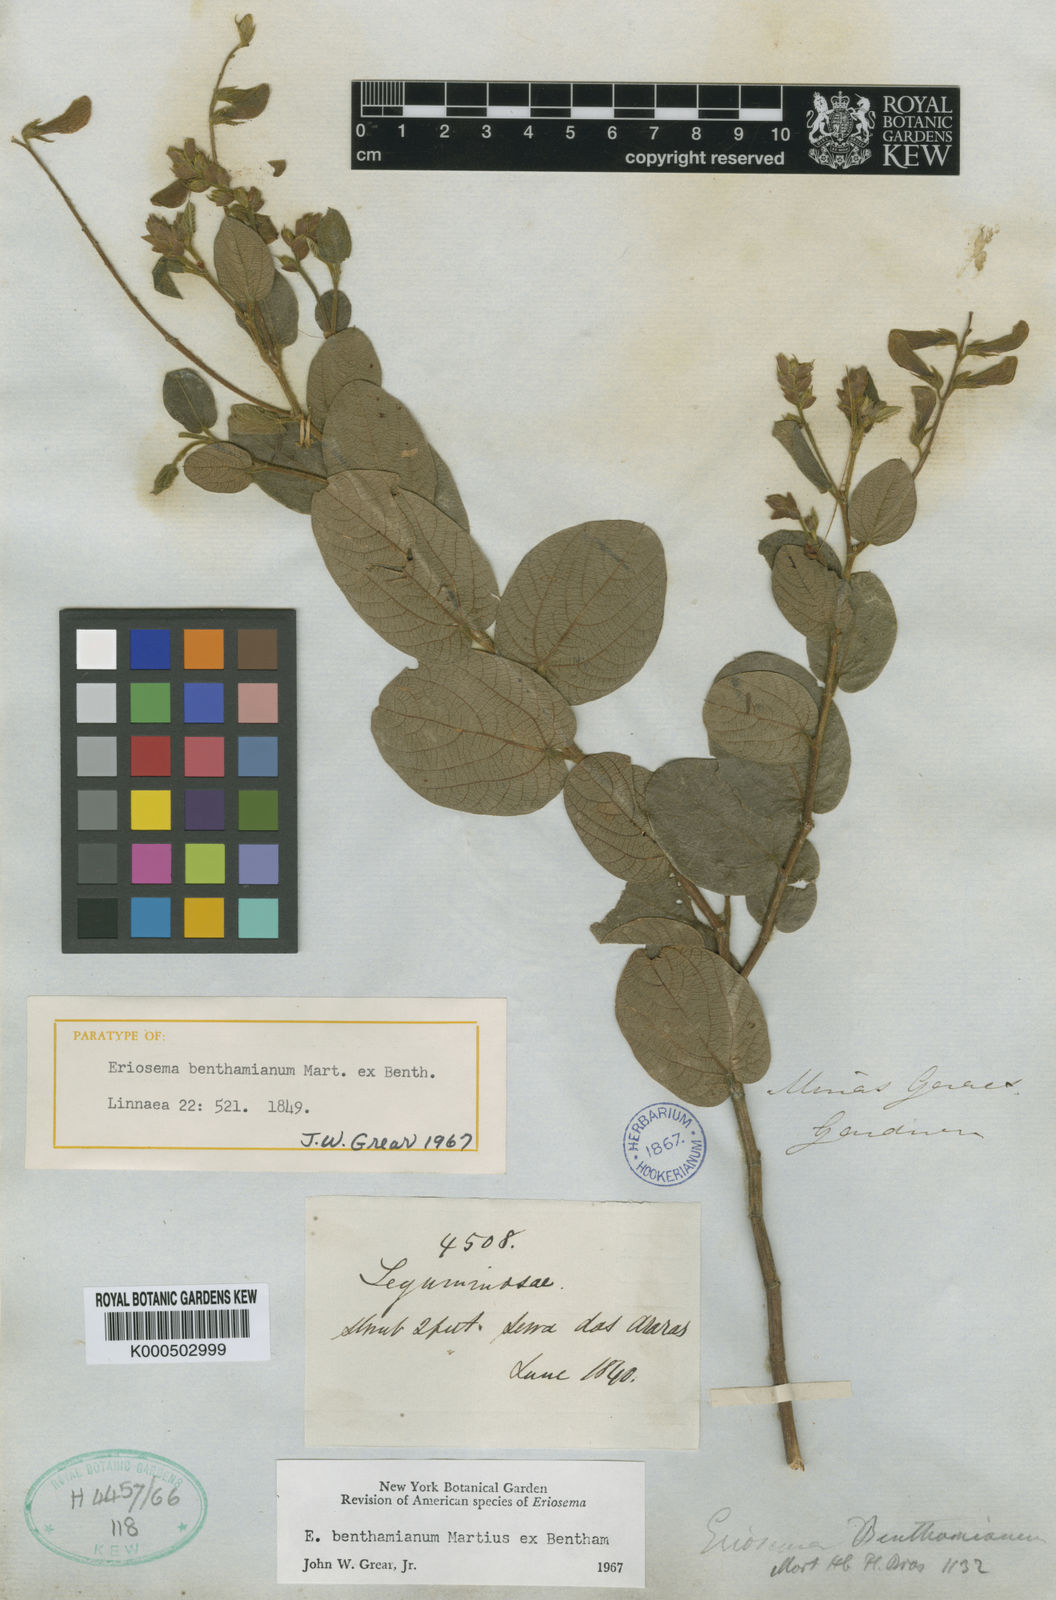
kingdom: Plantae
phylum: Tracheophyta
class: Magnoliopsida
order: Fabales
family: Fabaceae
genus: Eriosema
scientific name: Eriosema benthamianum
